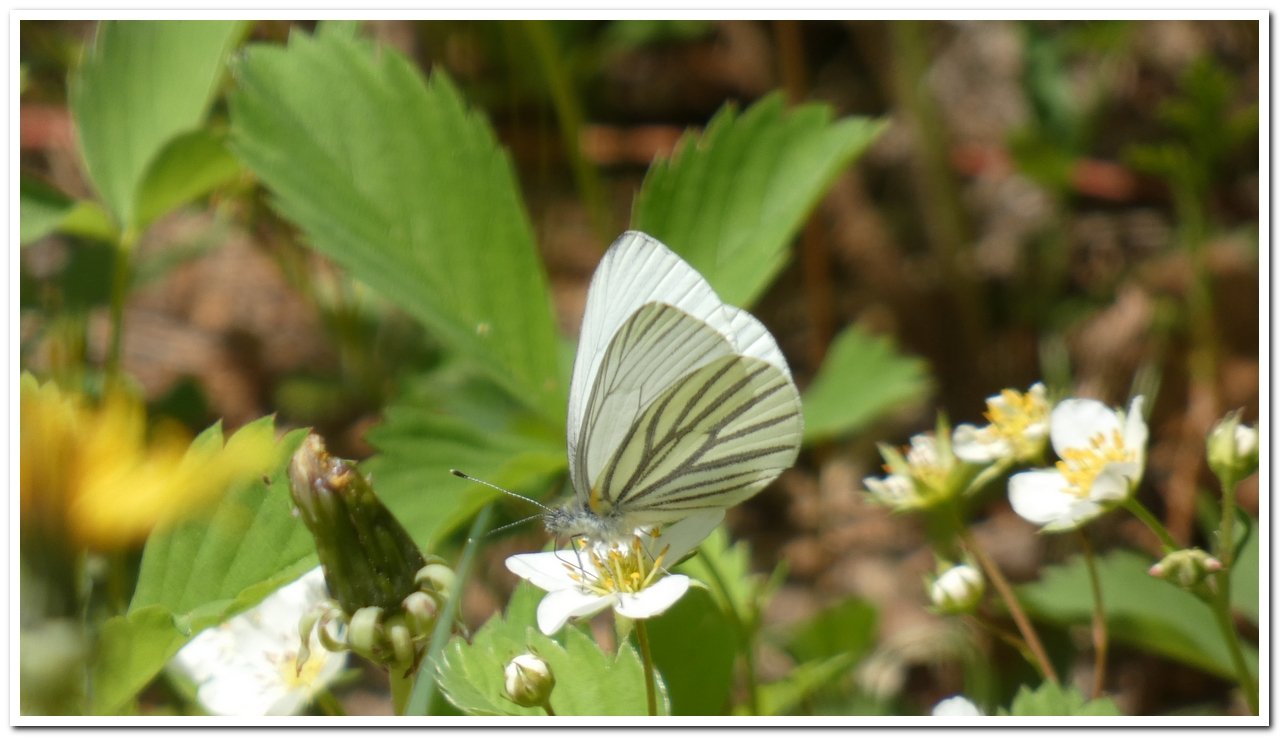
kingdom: Animalia
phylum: Arthropoda
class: Insecta
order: Lepidoptera
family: Pieridae
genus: Pieris
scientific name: Pieris oleracea
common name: Mustard White
